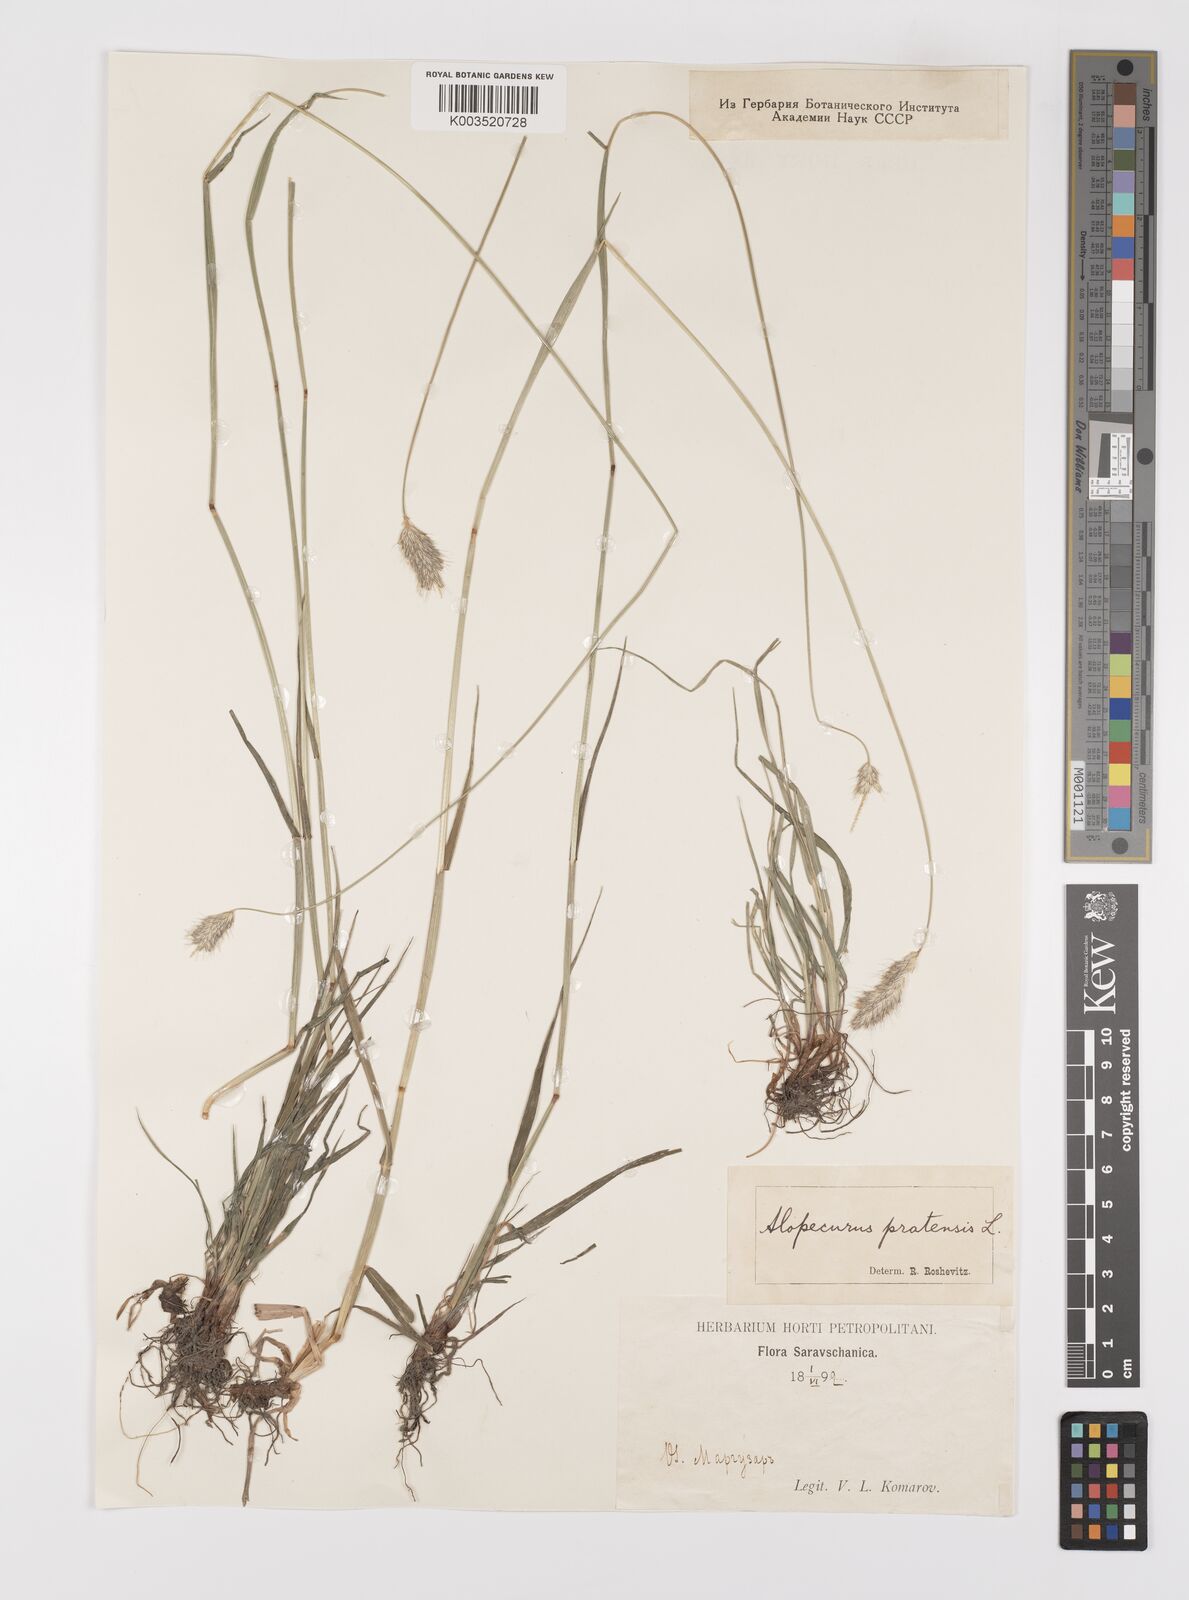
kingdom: Plantae
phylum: Tracheophyta
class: Liliopsida
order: Poales
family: Poaceae
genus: Alopecurus
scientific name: Alopecurus pratensis
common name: Meadow foxtail
